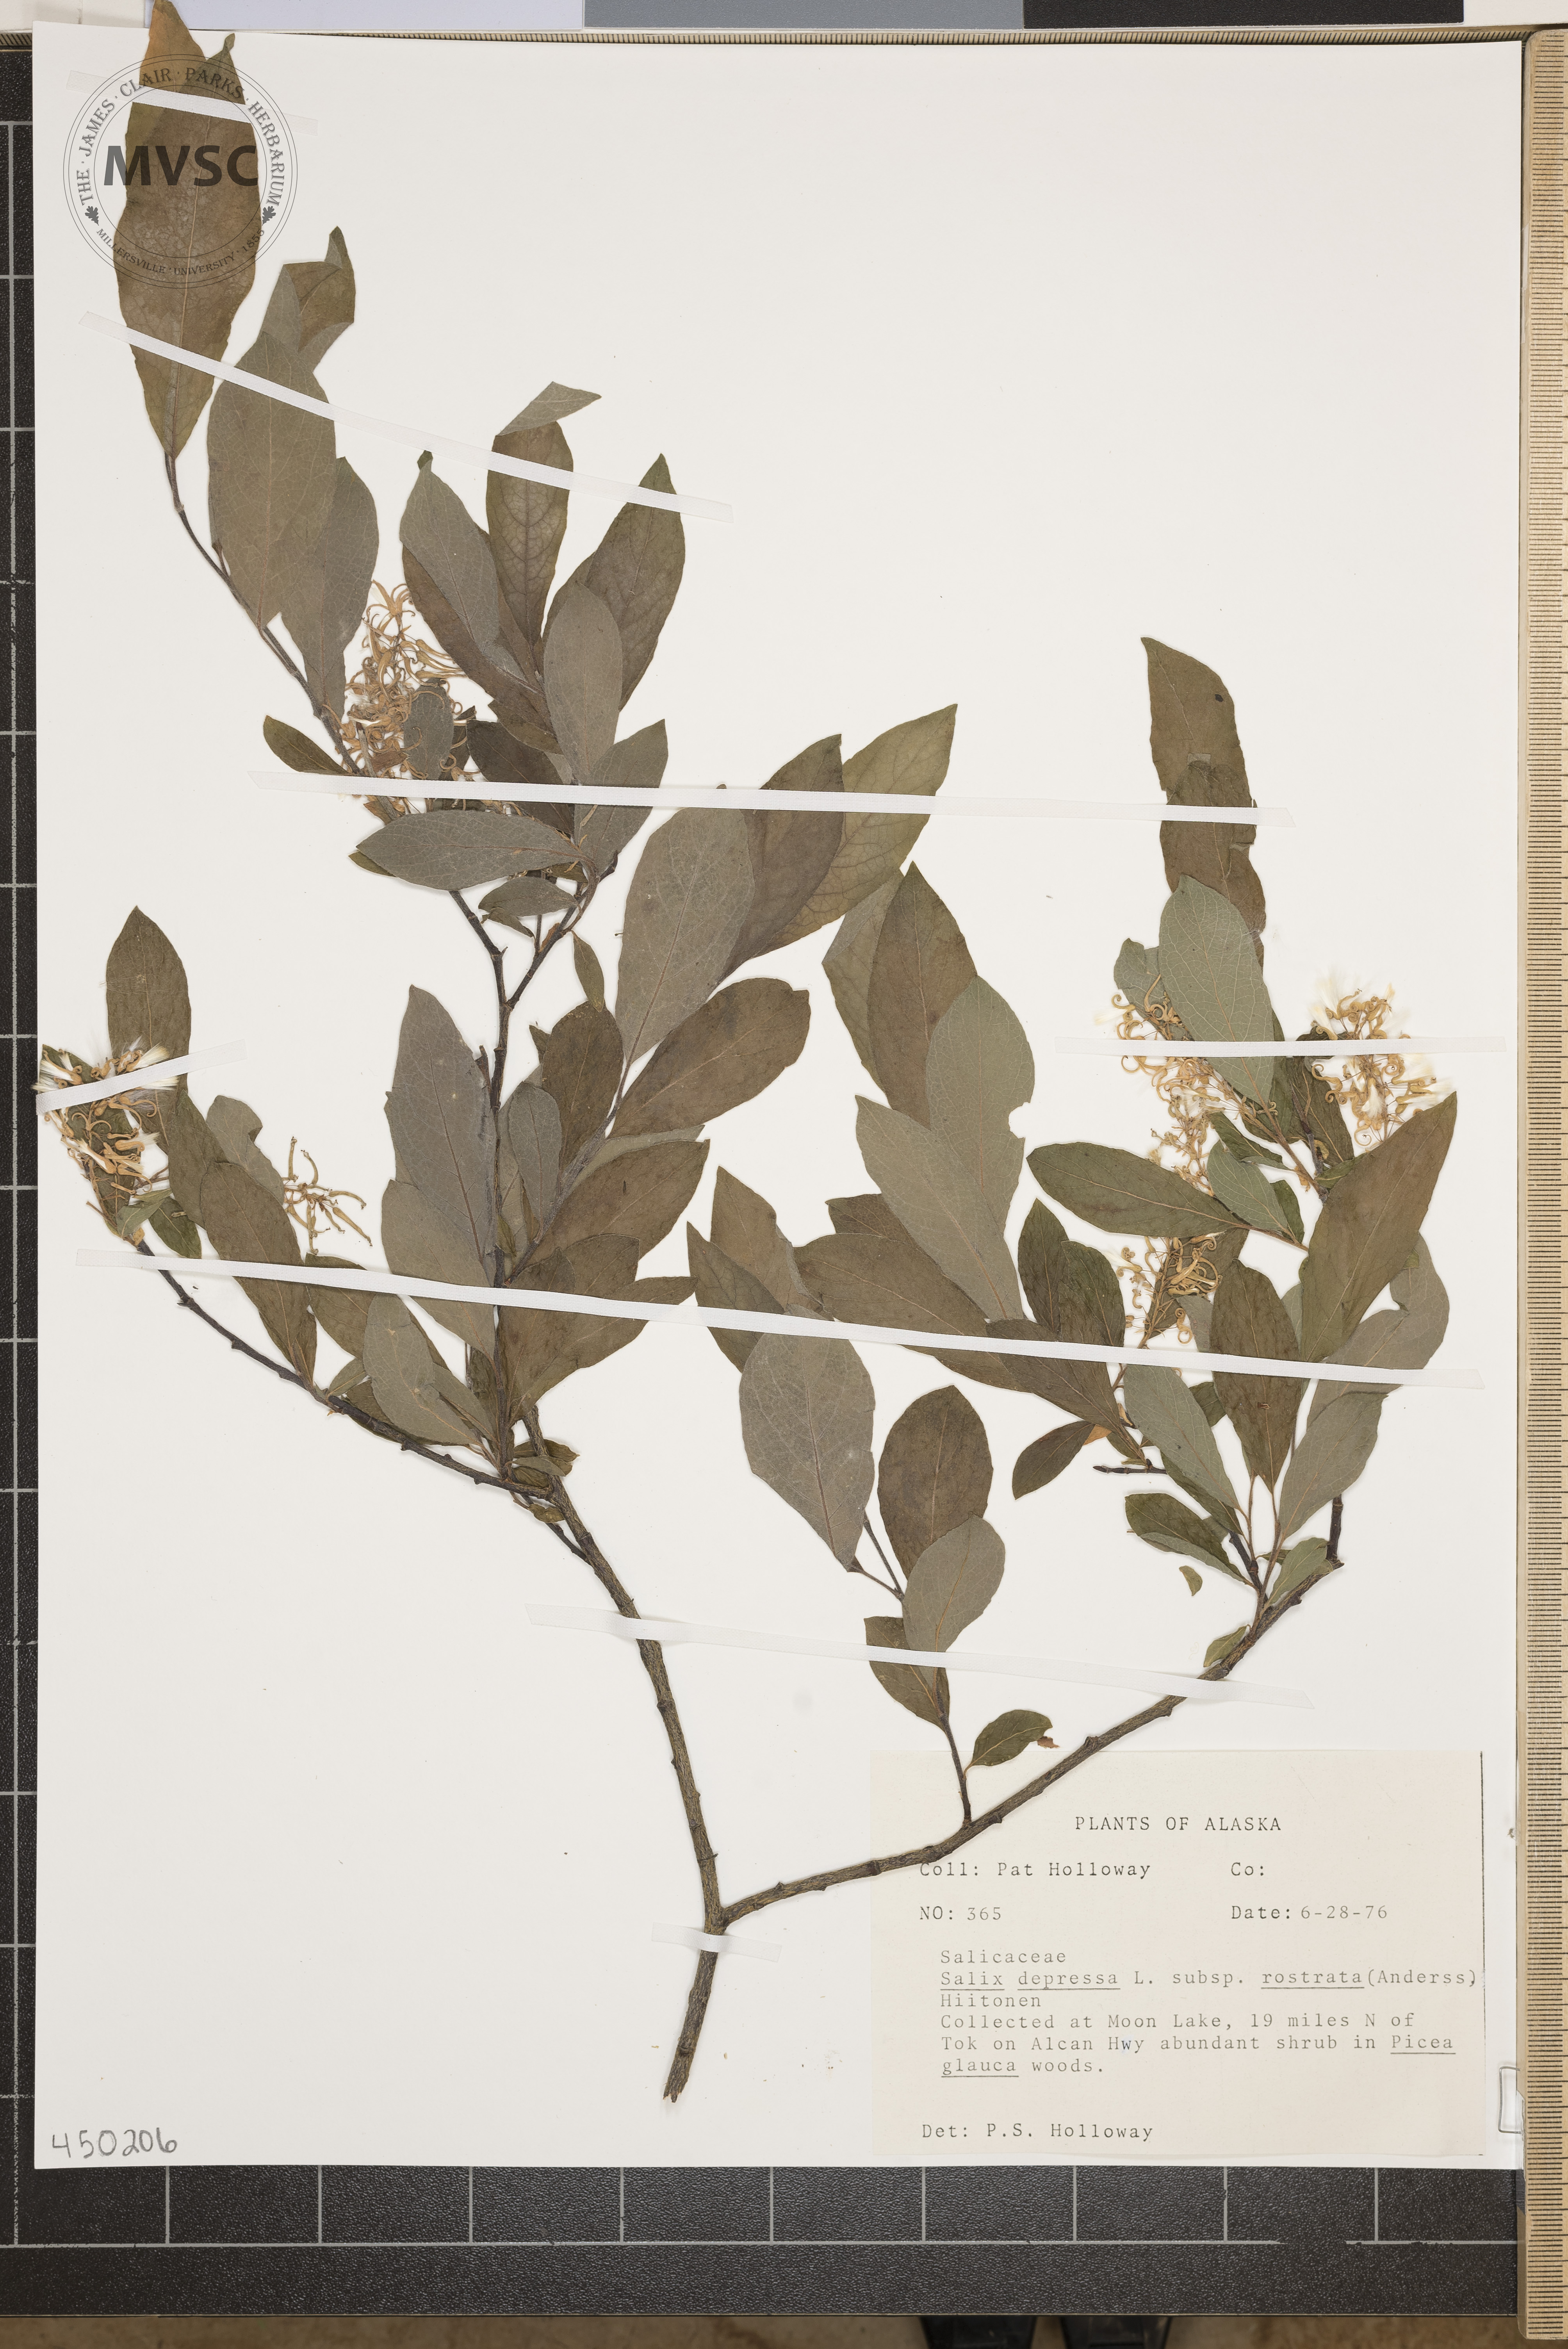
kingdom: Plantae
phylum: Tracheophyta
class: Magnoliopsida
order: Malpighiales
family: Salicaceae
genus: Salix
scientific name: Salix
